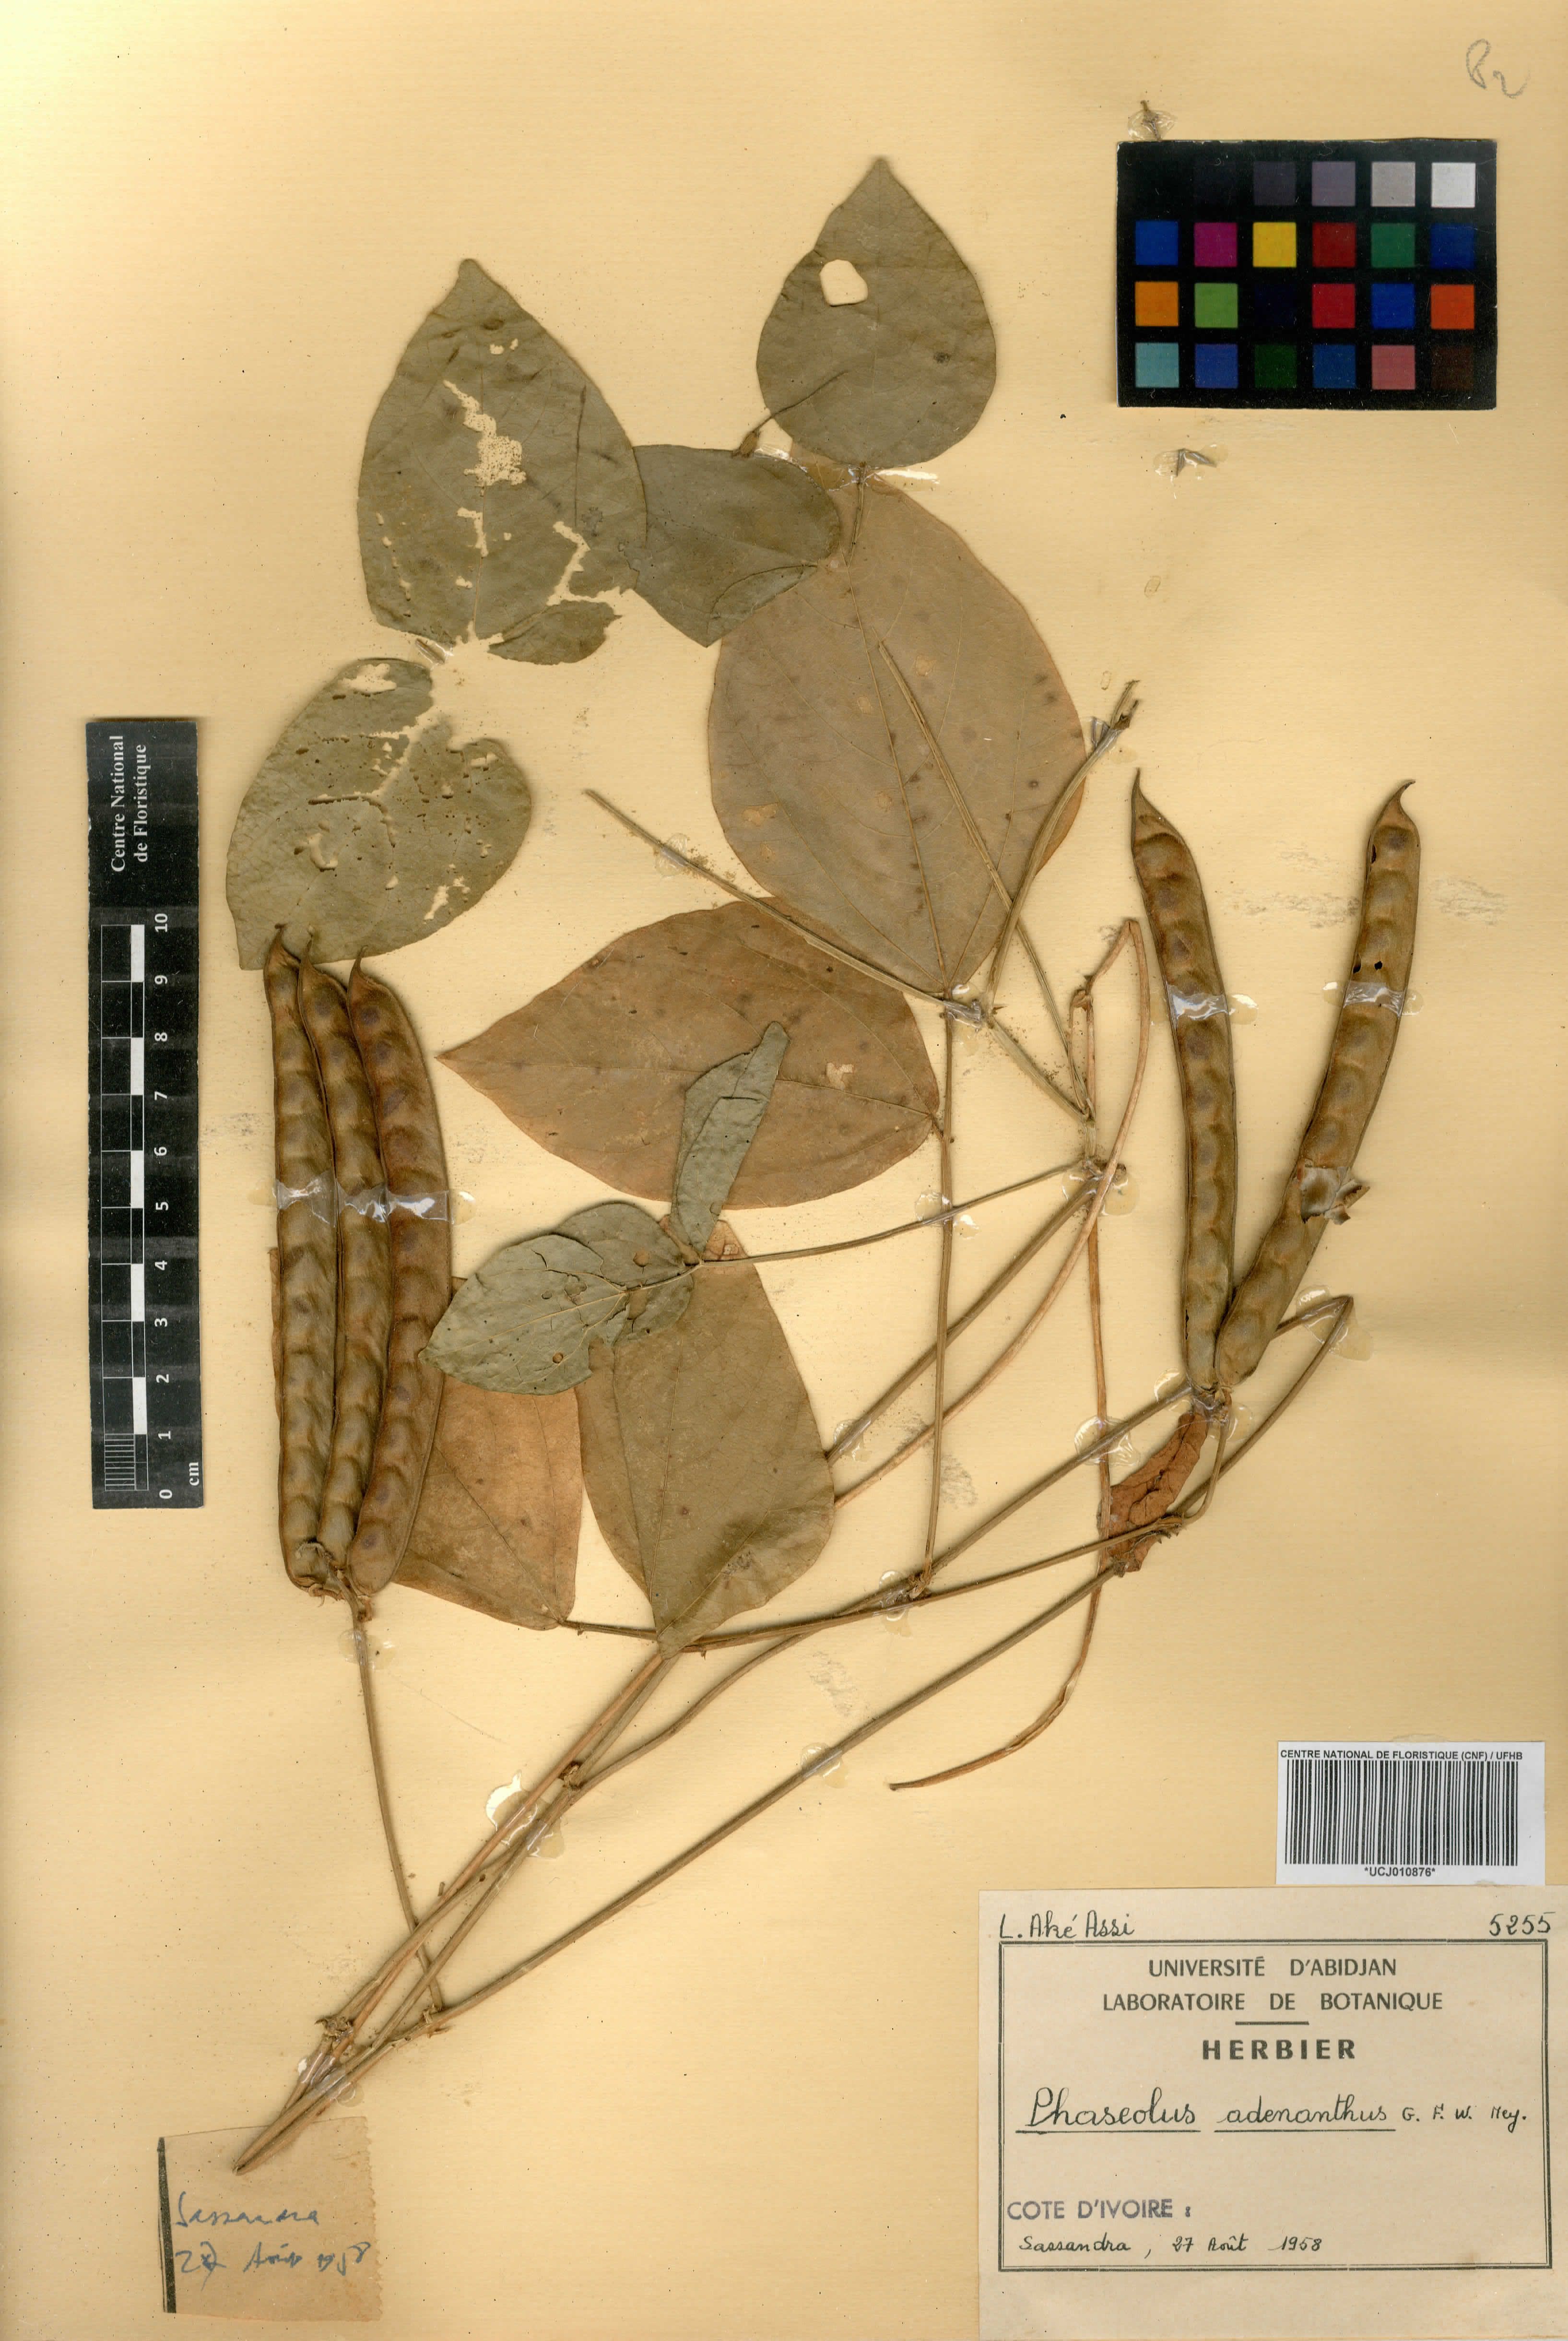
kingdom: Plantae
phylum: Tracheophyta
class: Magnoliopsida
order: Fabales
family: Fabaceae
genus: Leptospron
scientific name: Leptospron adenanthum
